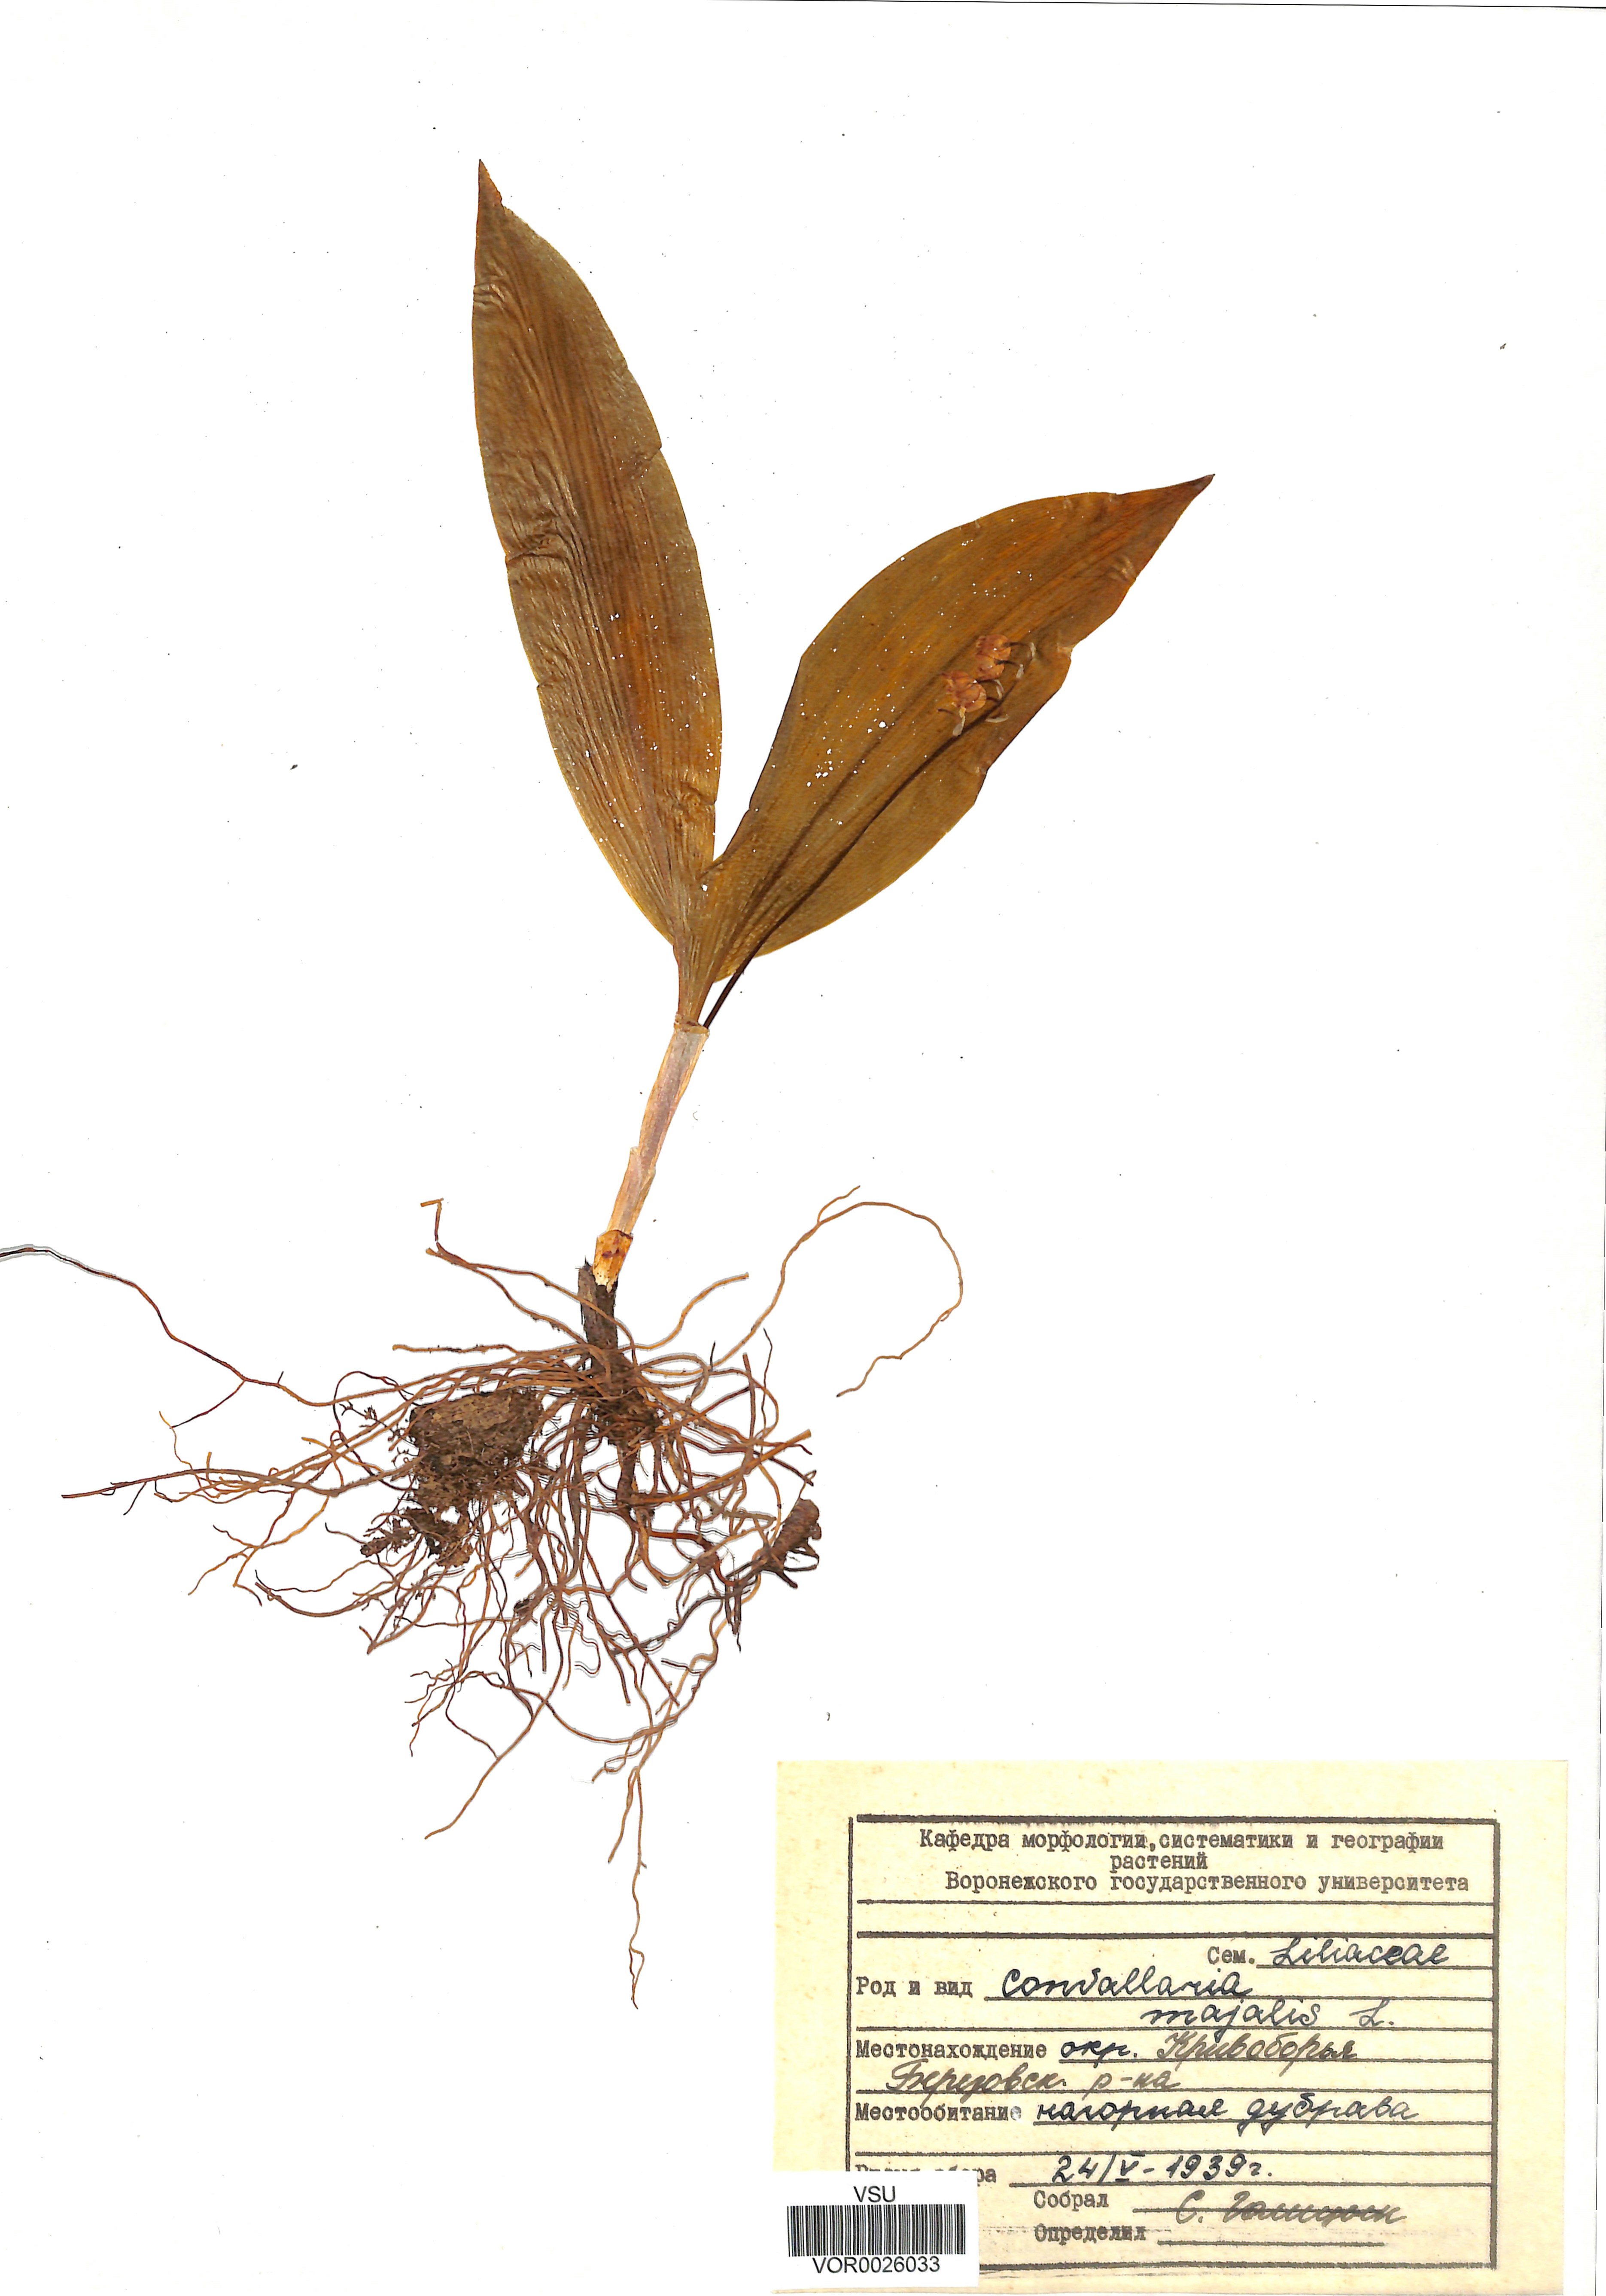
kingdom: Plantae
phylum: Tracheophyta
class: Liliopsida
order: Asparagales
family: Asparagaceae
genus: Convallaria
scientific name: Convallaria majalis
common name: Lily-of-the-valley
